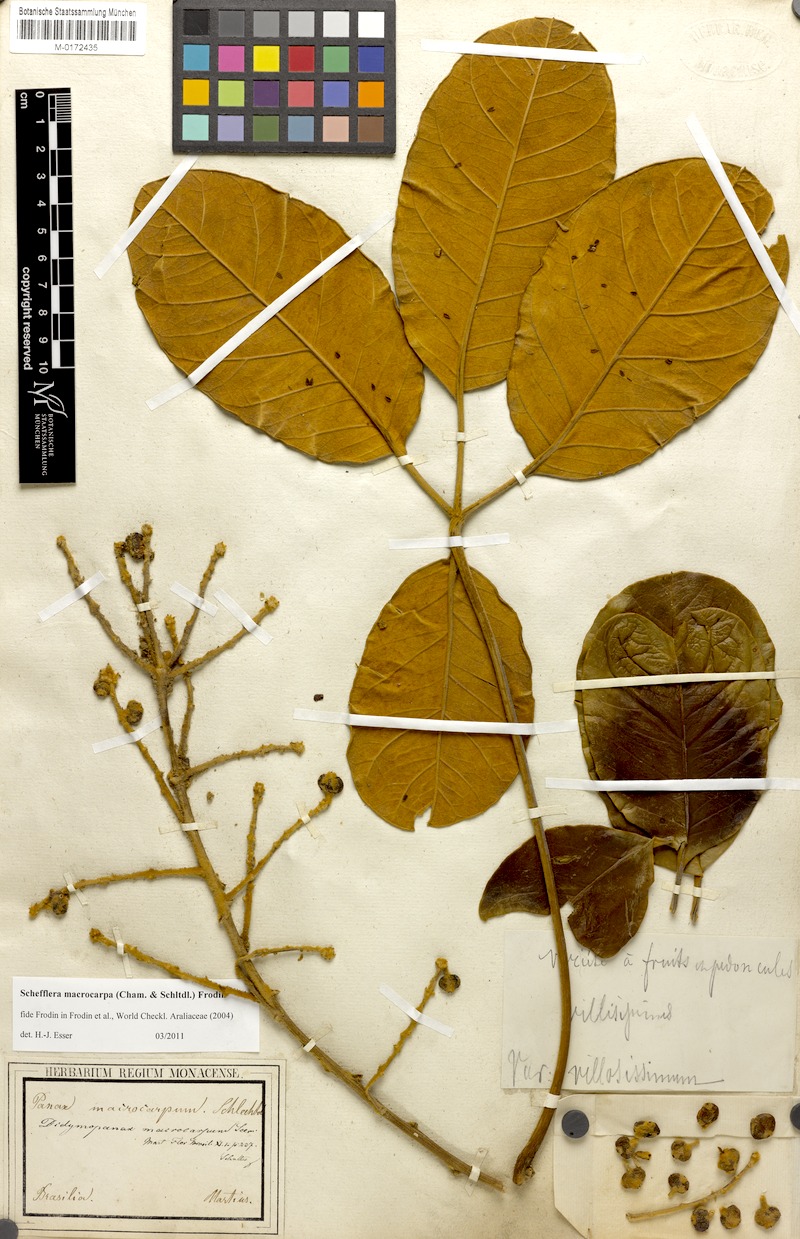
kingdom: Plantae
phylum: Tracheophyta
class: Magnoliopsida
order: Apiales
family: Araliaceae
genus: Didymopanax
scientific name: Didymopanax macrocarpus
